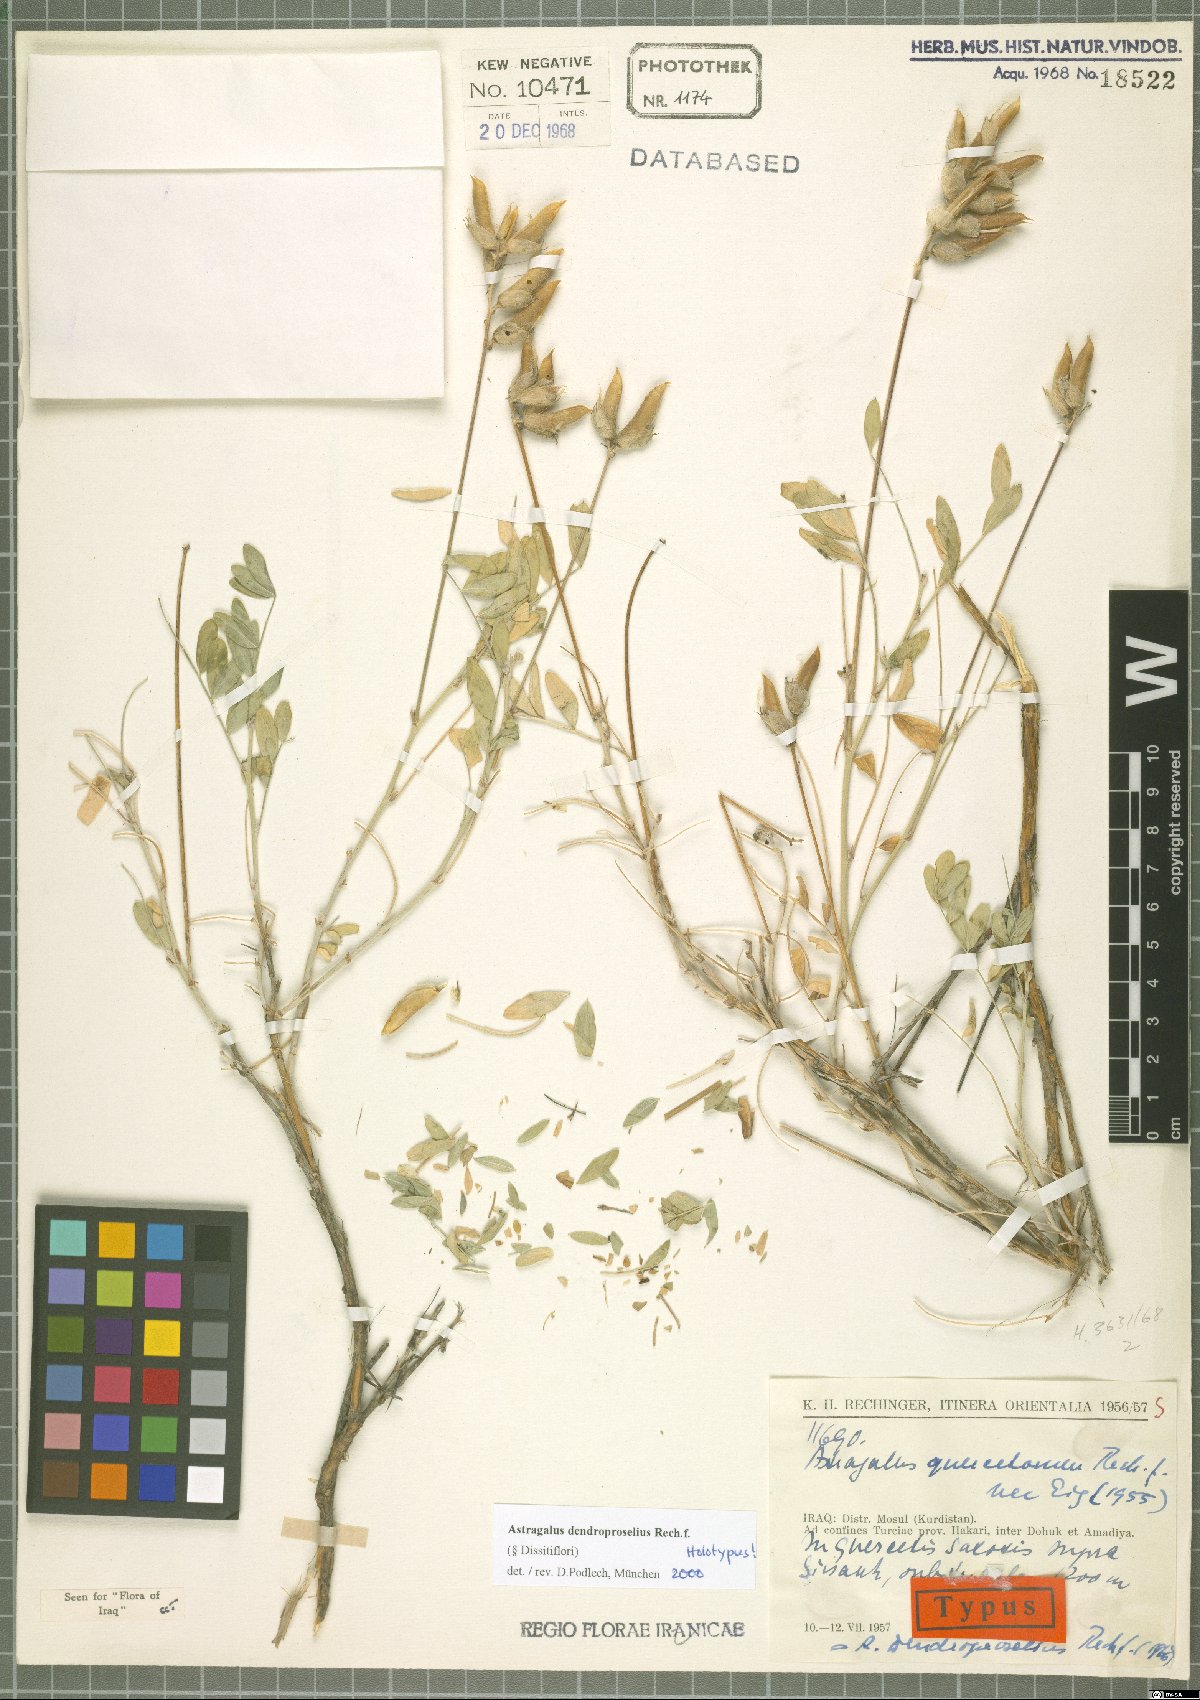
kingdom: Plantae
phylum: Tracheophyta
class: Magnoliopsida
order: Fabales
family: Fabaceae
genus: Astragalus
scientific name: Astragalus dendroproselius
